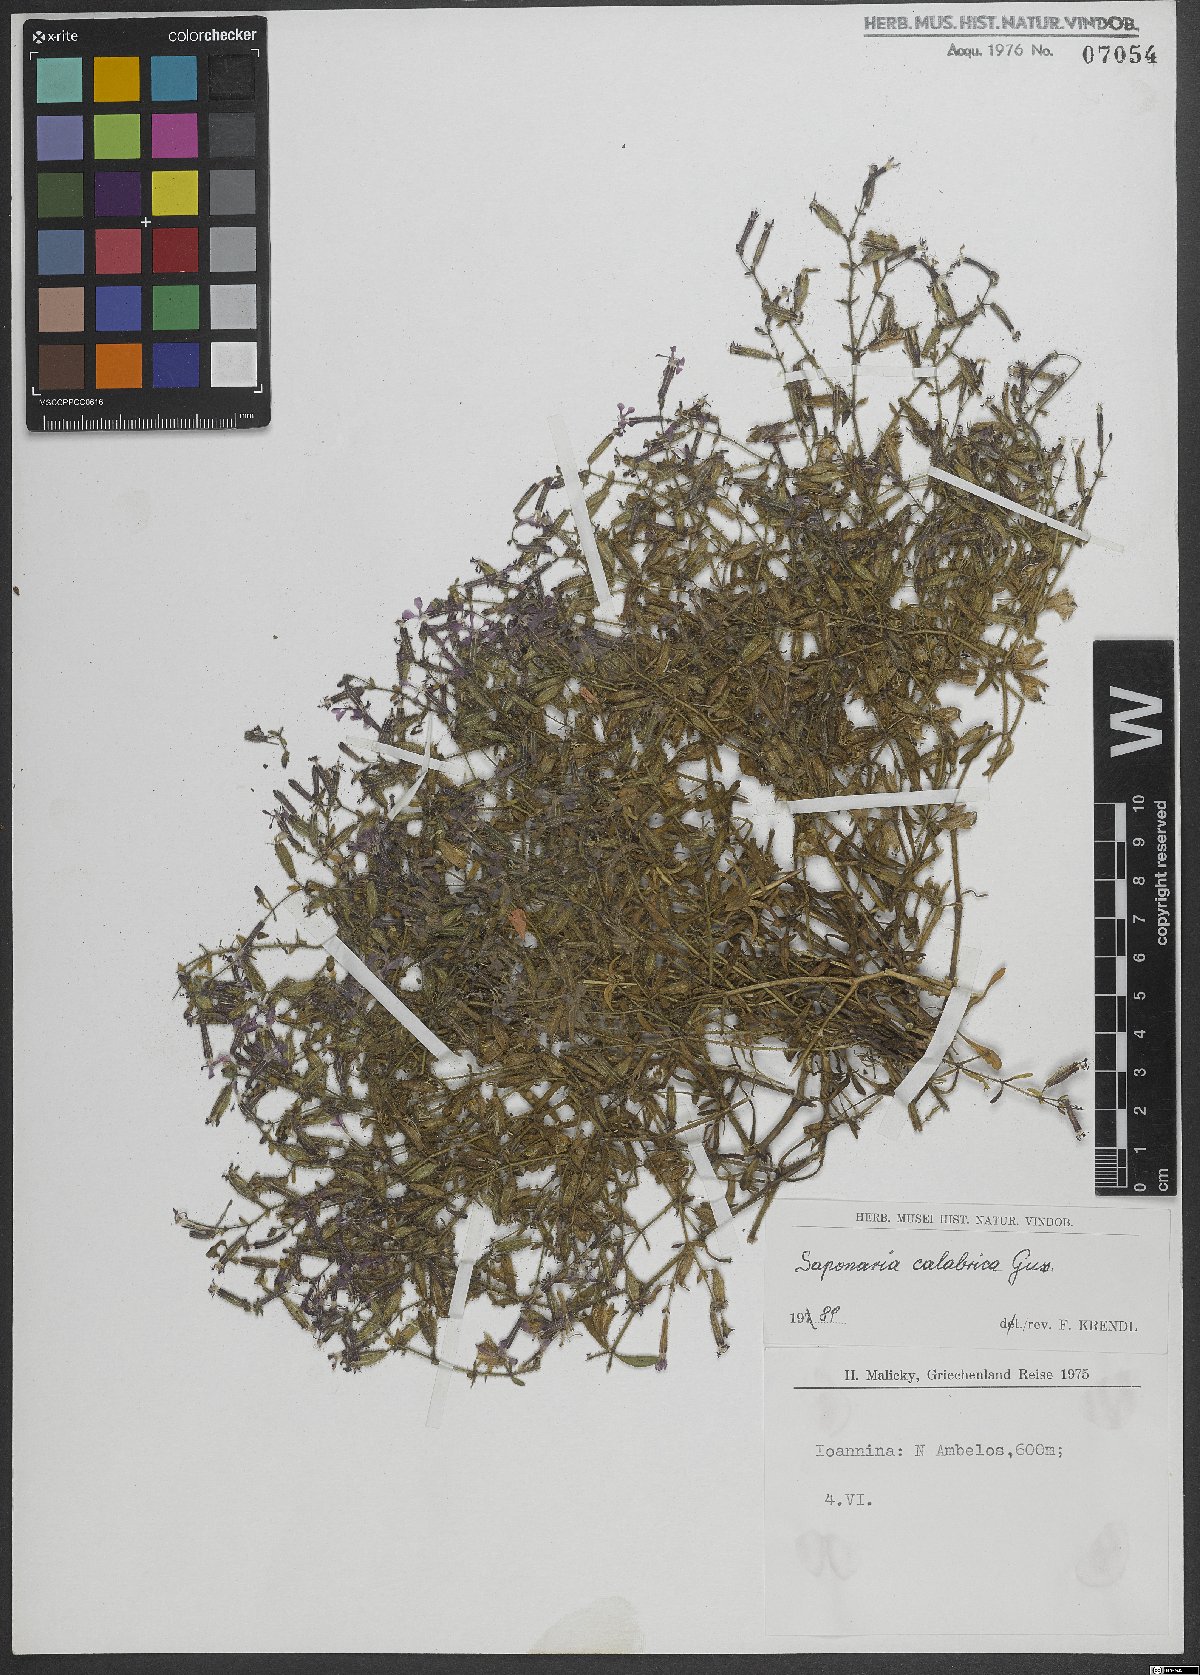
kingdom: Plantae
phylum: Tracheophyta
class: Magnoliopsida
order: Caryophyllales
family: Caryophyllaceae
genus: Saponaria
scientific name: Saponaria calabrica
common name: Adriatic soapwort
